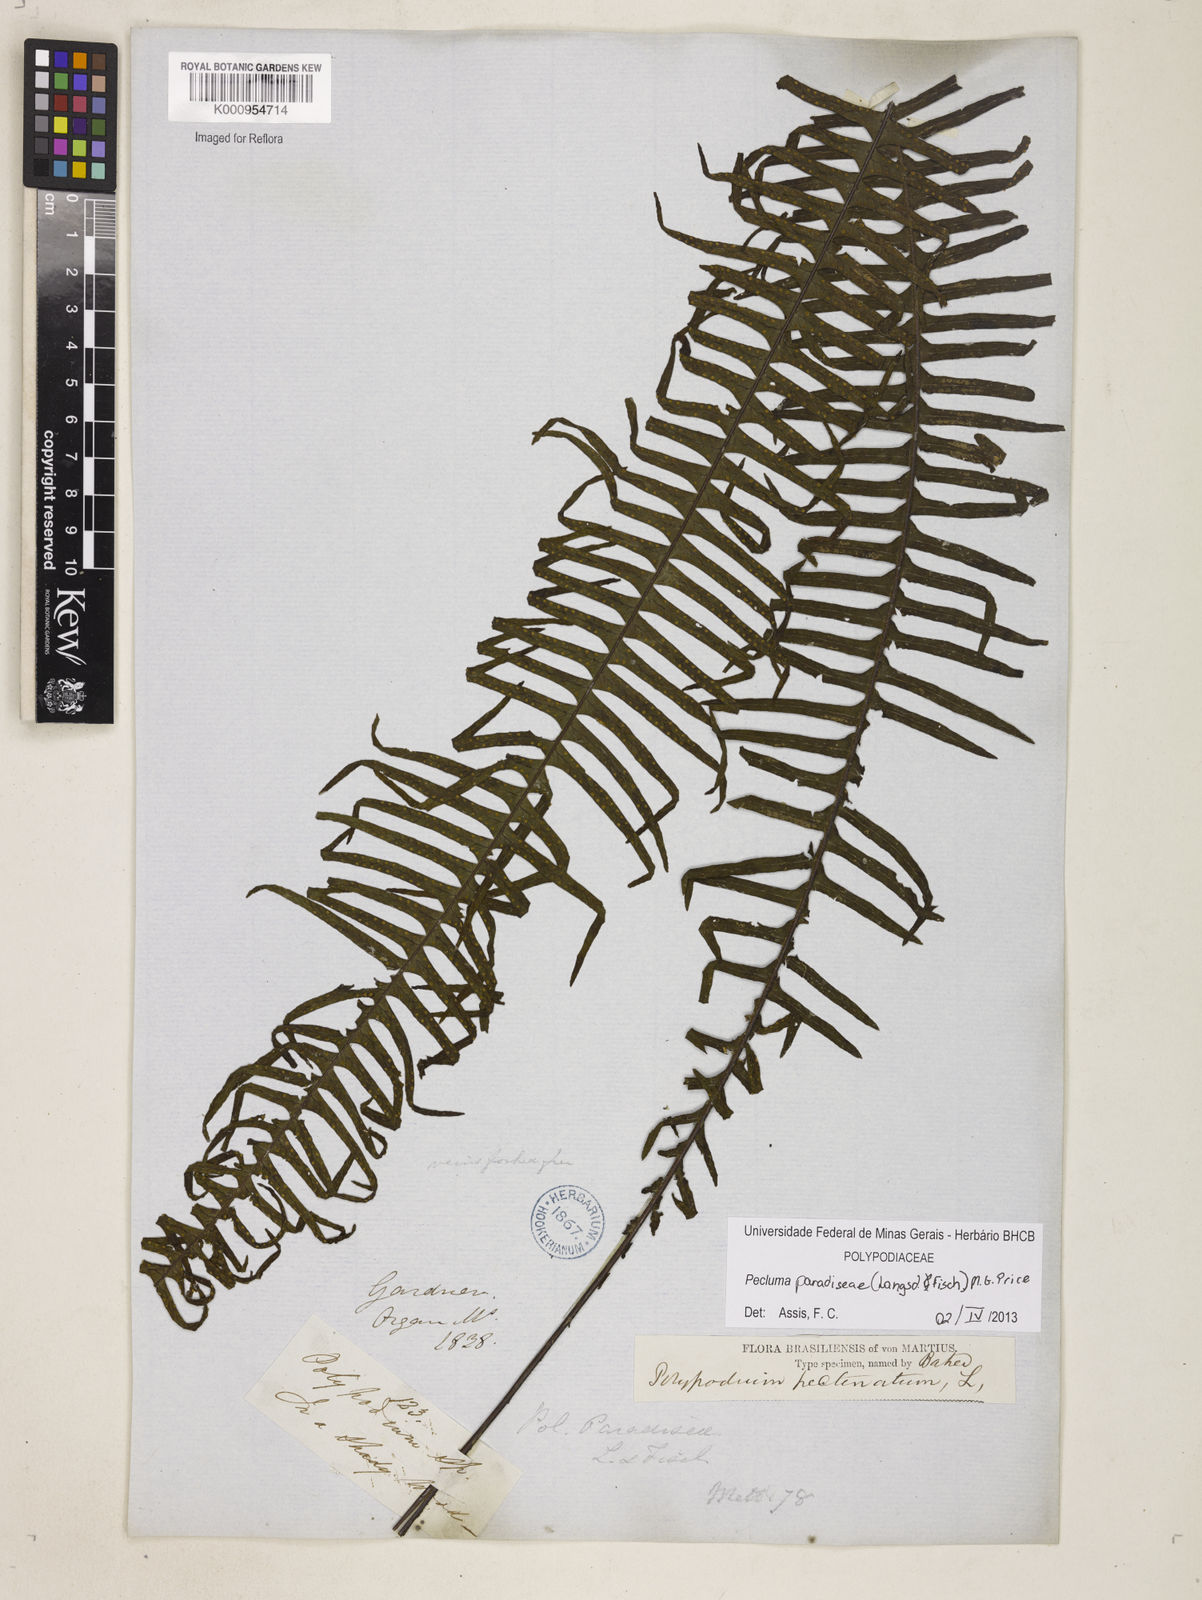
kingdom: Plantae
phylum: Tracheophyta
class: Polypodiopsida
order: Polypodiales
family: Polypodiaceae
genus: Pecluma
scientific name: Pecluma paradiseae
